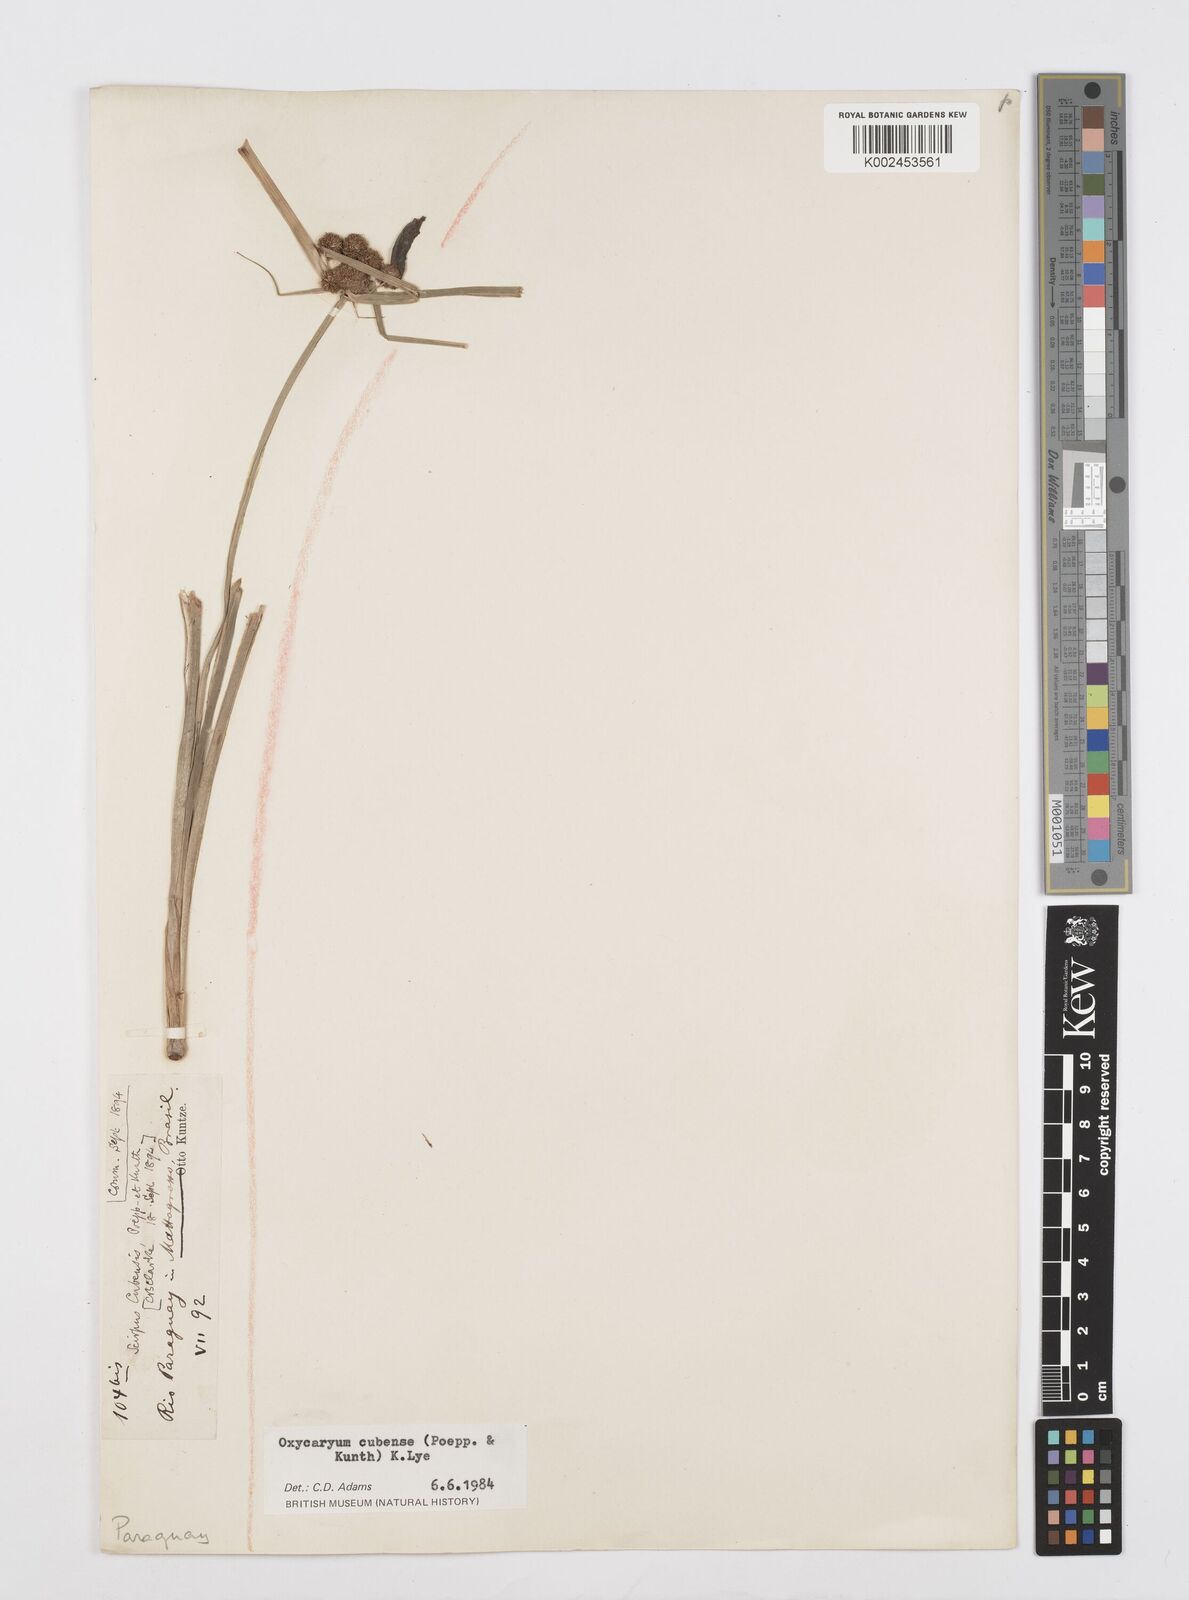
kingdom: Plantae
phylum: Tracheophyta
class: Liliopsida
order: Poales
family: Cyperaceae
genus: Cyperus
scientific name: Cyperus elegans
